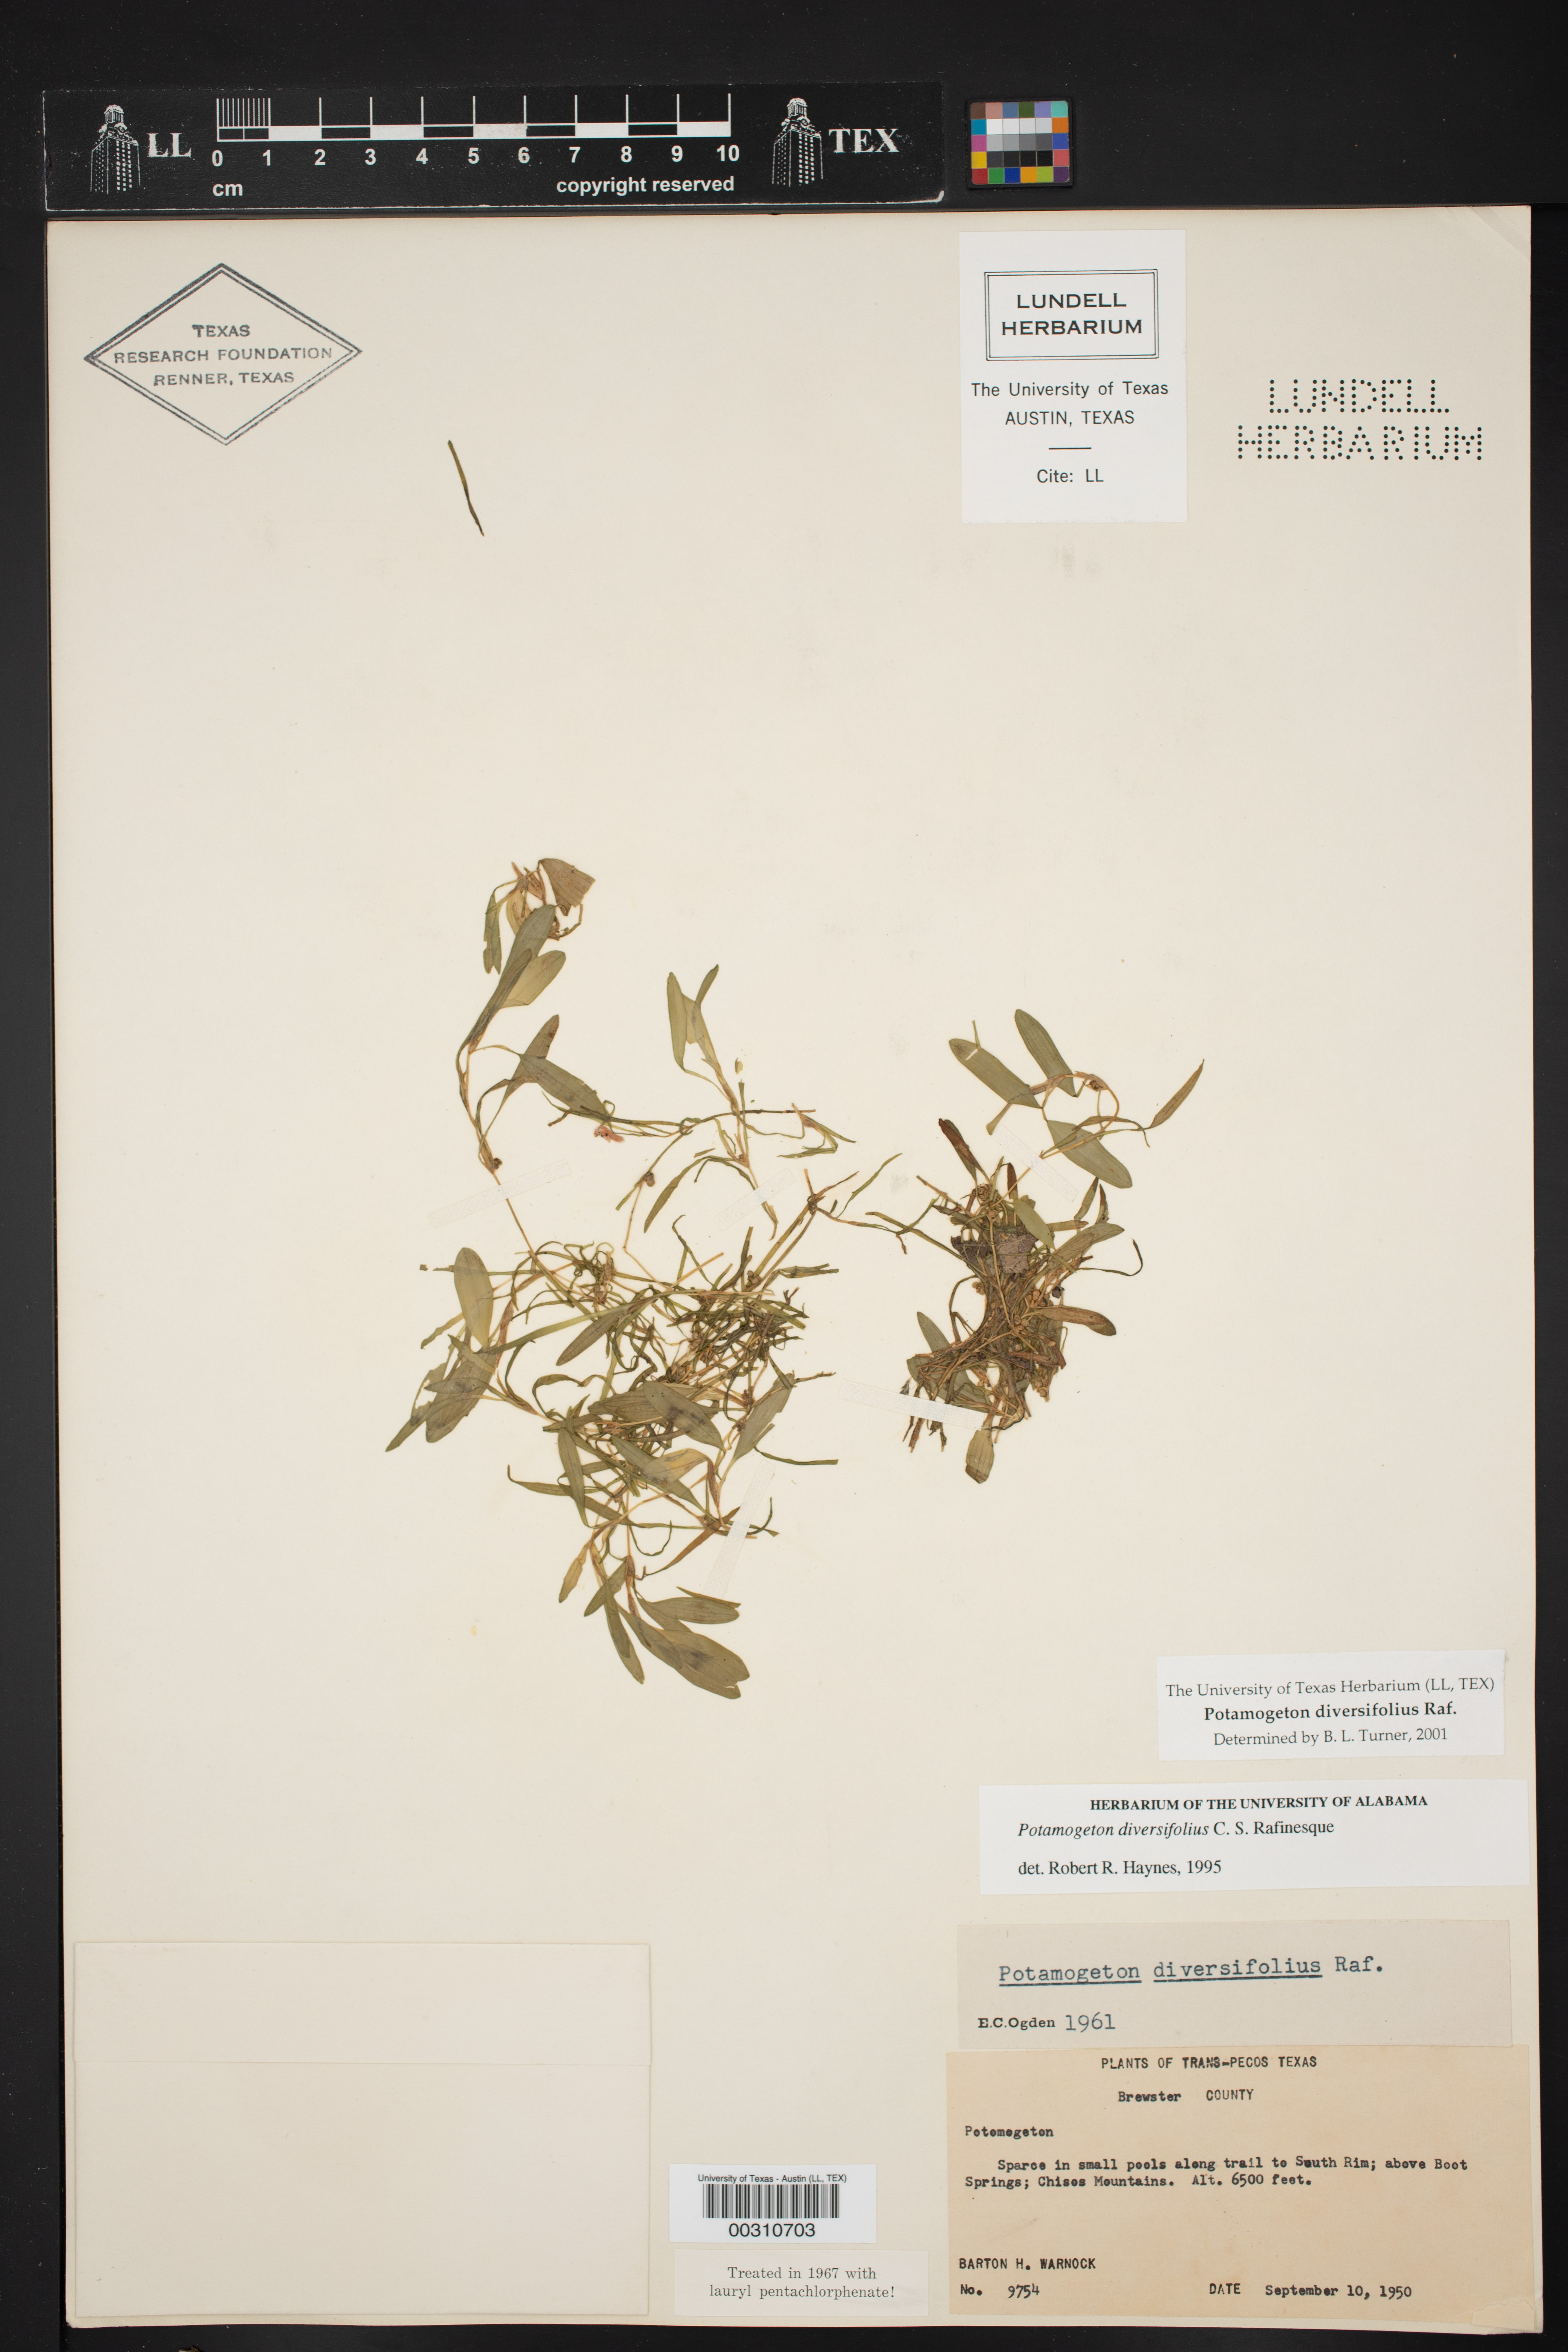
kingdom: Plantae
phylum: Tracheophyta
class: Liliopsida
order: Alismatales
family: Potamogetonaceae
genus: Potamogeton
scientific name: Potamogeton diversifolius
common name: Water-thread pondweed
